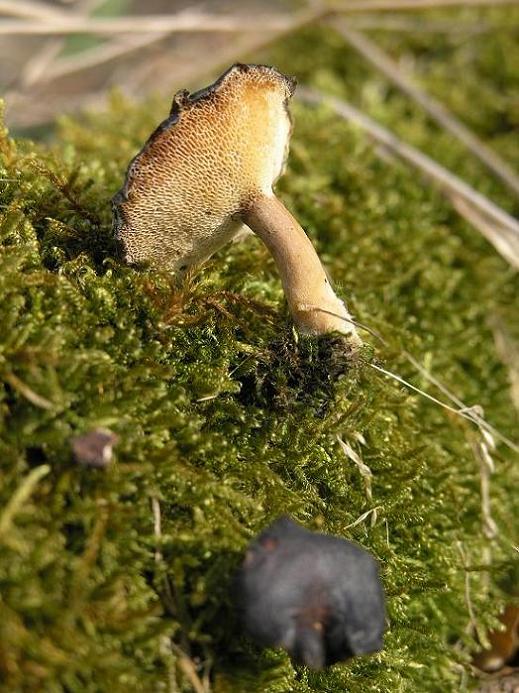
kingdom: Fungi
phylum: Basidiomycota
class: Agaricomycetes
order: Polyporales
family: Polyporaceae
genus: Lentinus
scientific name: Lentinus brumalis
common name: vinter-stilkporesvamp
